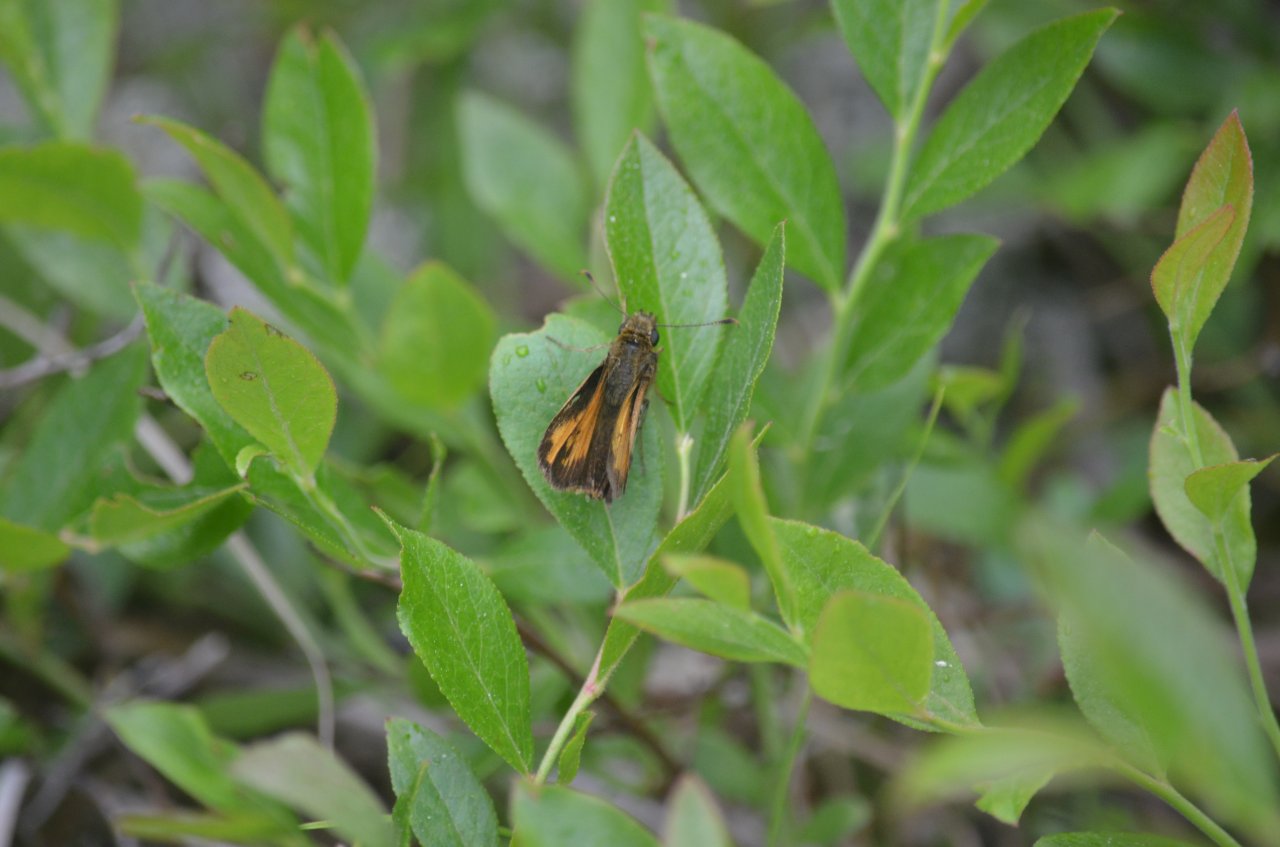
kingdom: Animalia
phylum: Arthropoda
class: Insecta
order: Lepidoptera
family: Hesperiidae
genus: Lon
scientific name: Lon hobomok
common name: Hobomok Skipper
